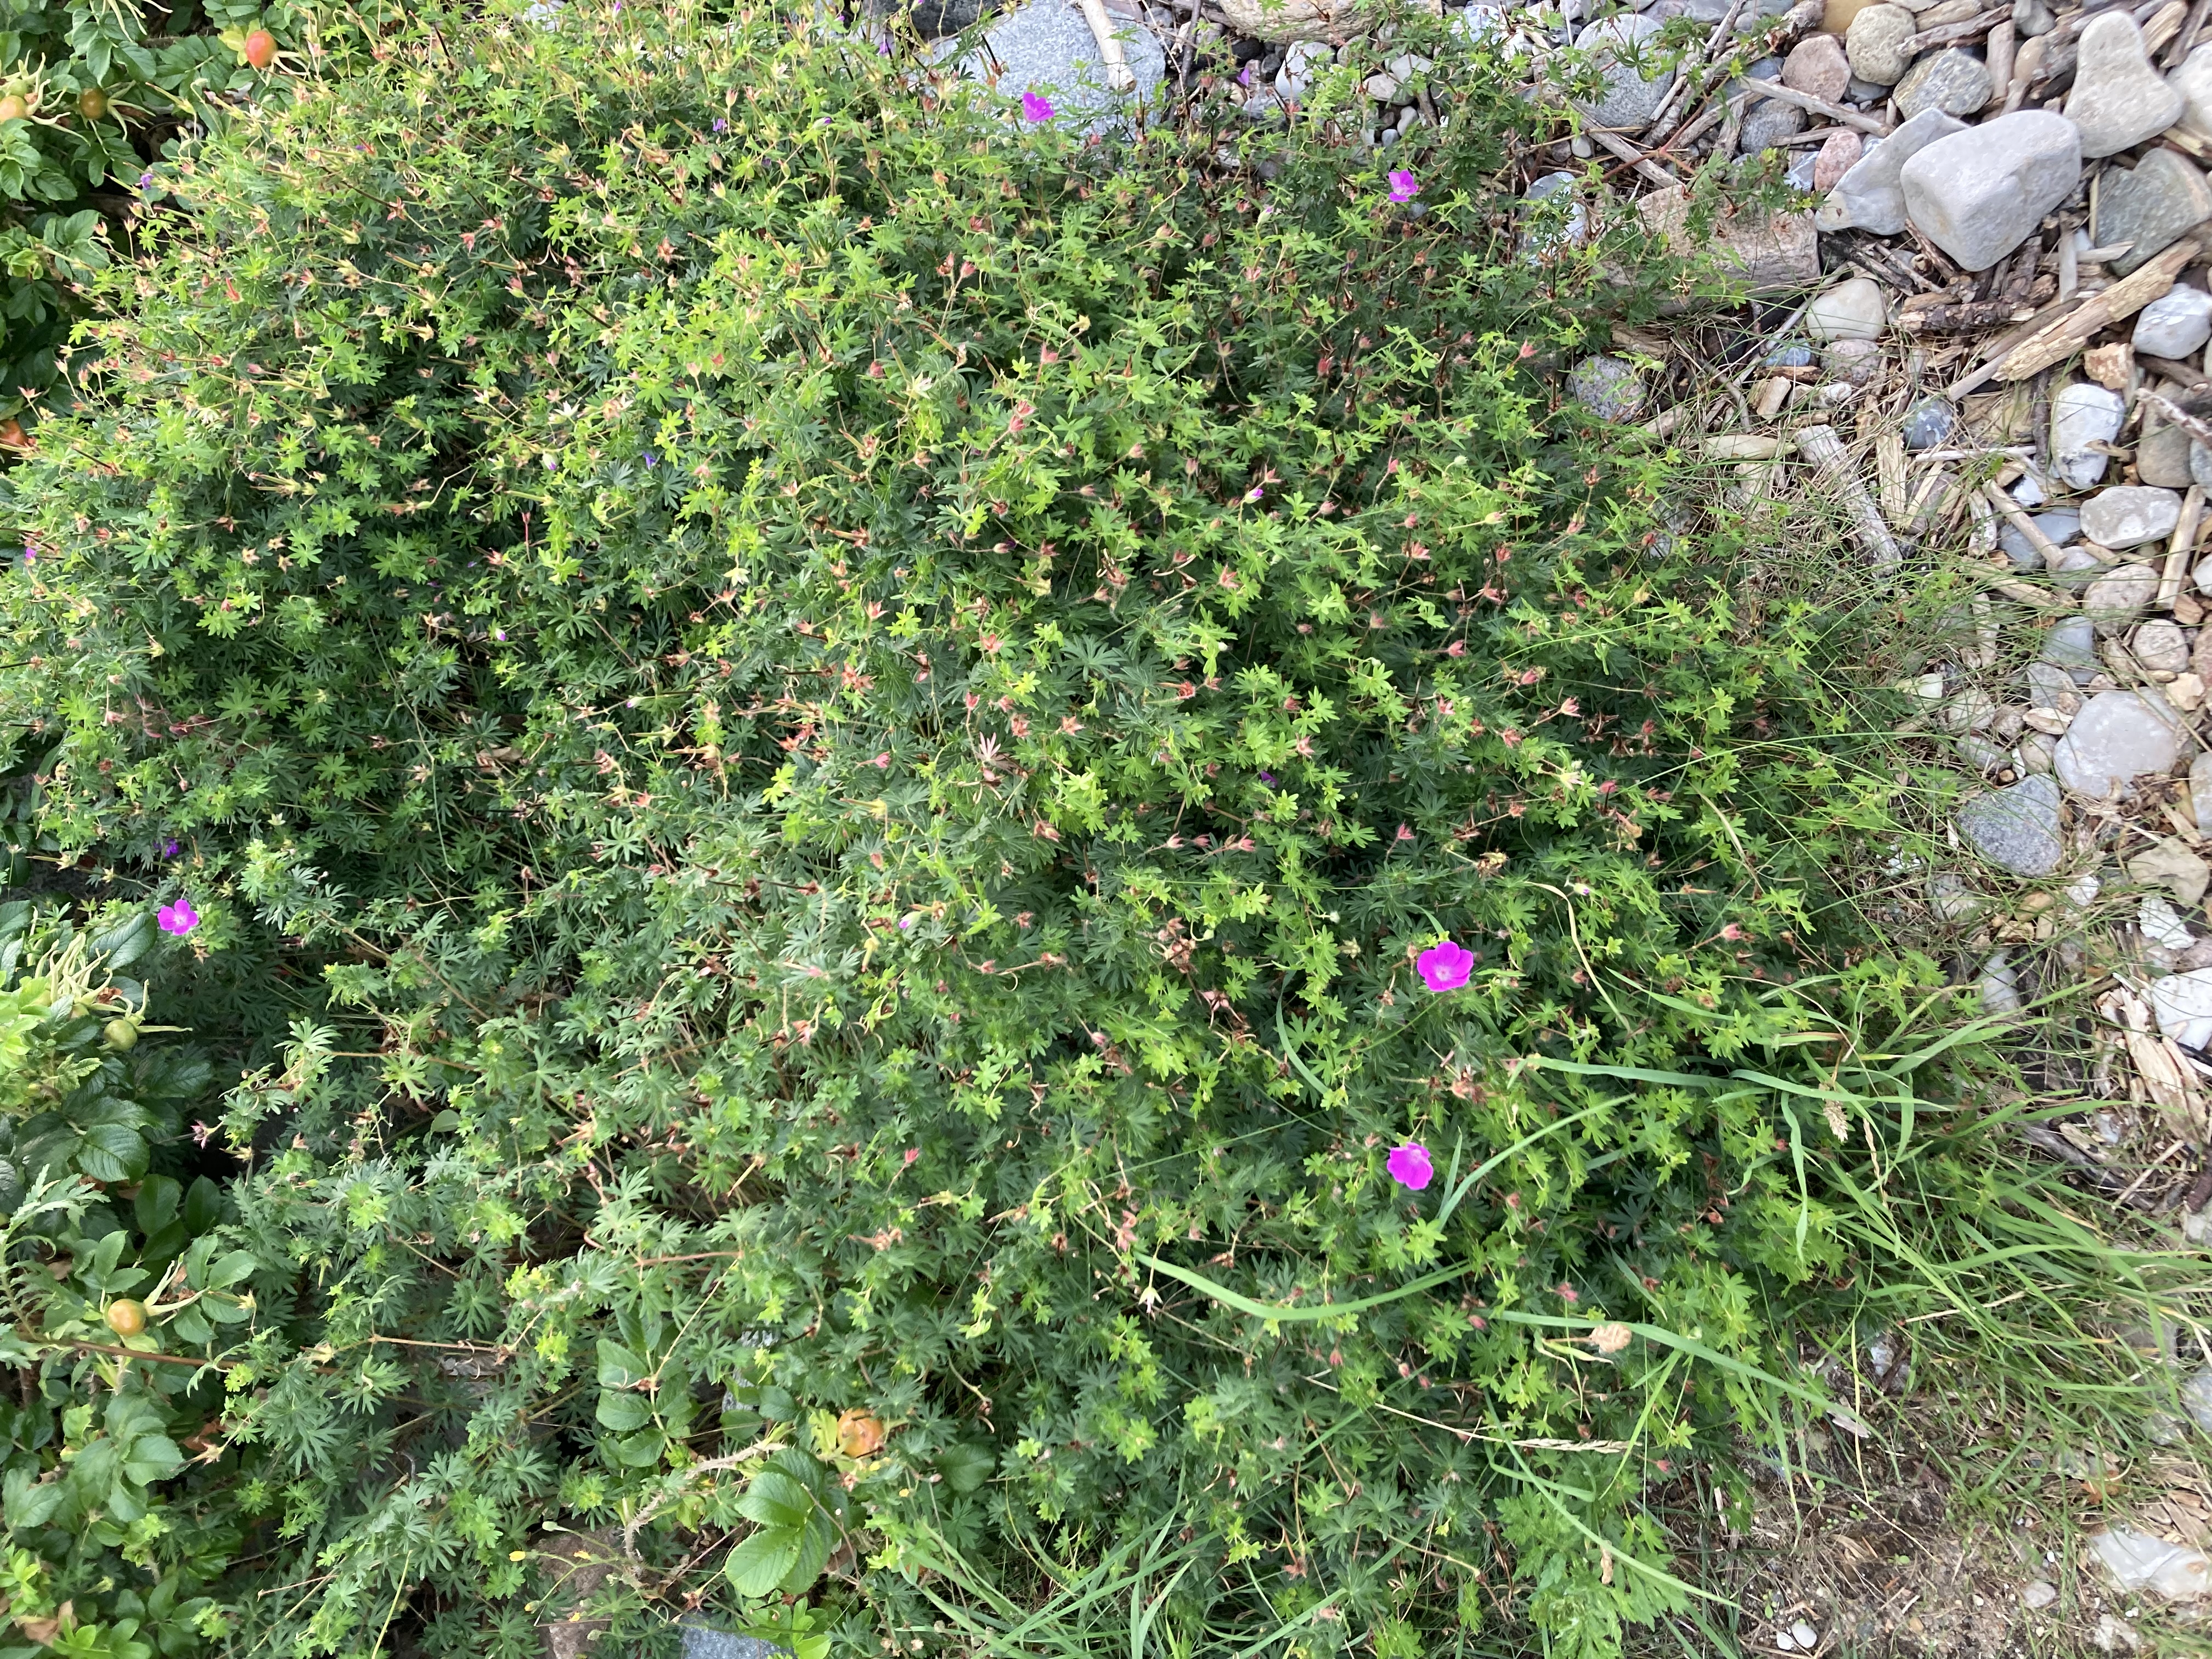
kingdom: Plantae
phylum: Tracheophyta
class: Magnoliopsida
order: Geraniales
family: Geraniaceae
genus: Geranium
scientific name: Geranium sanguineum
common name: Blodrød storkenæb
